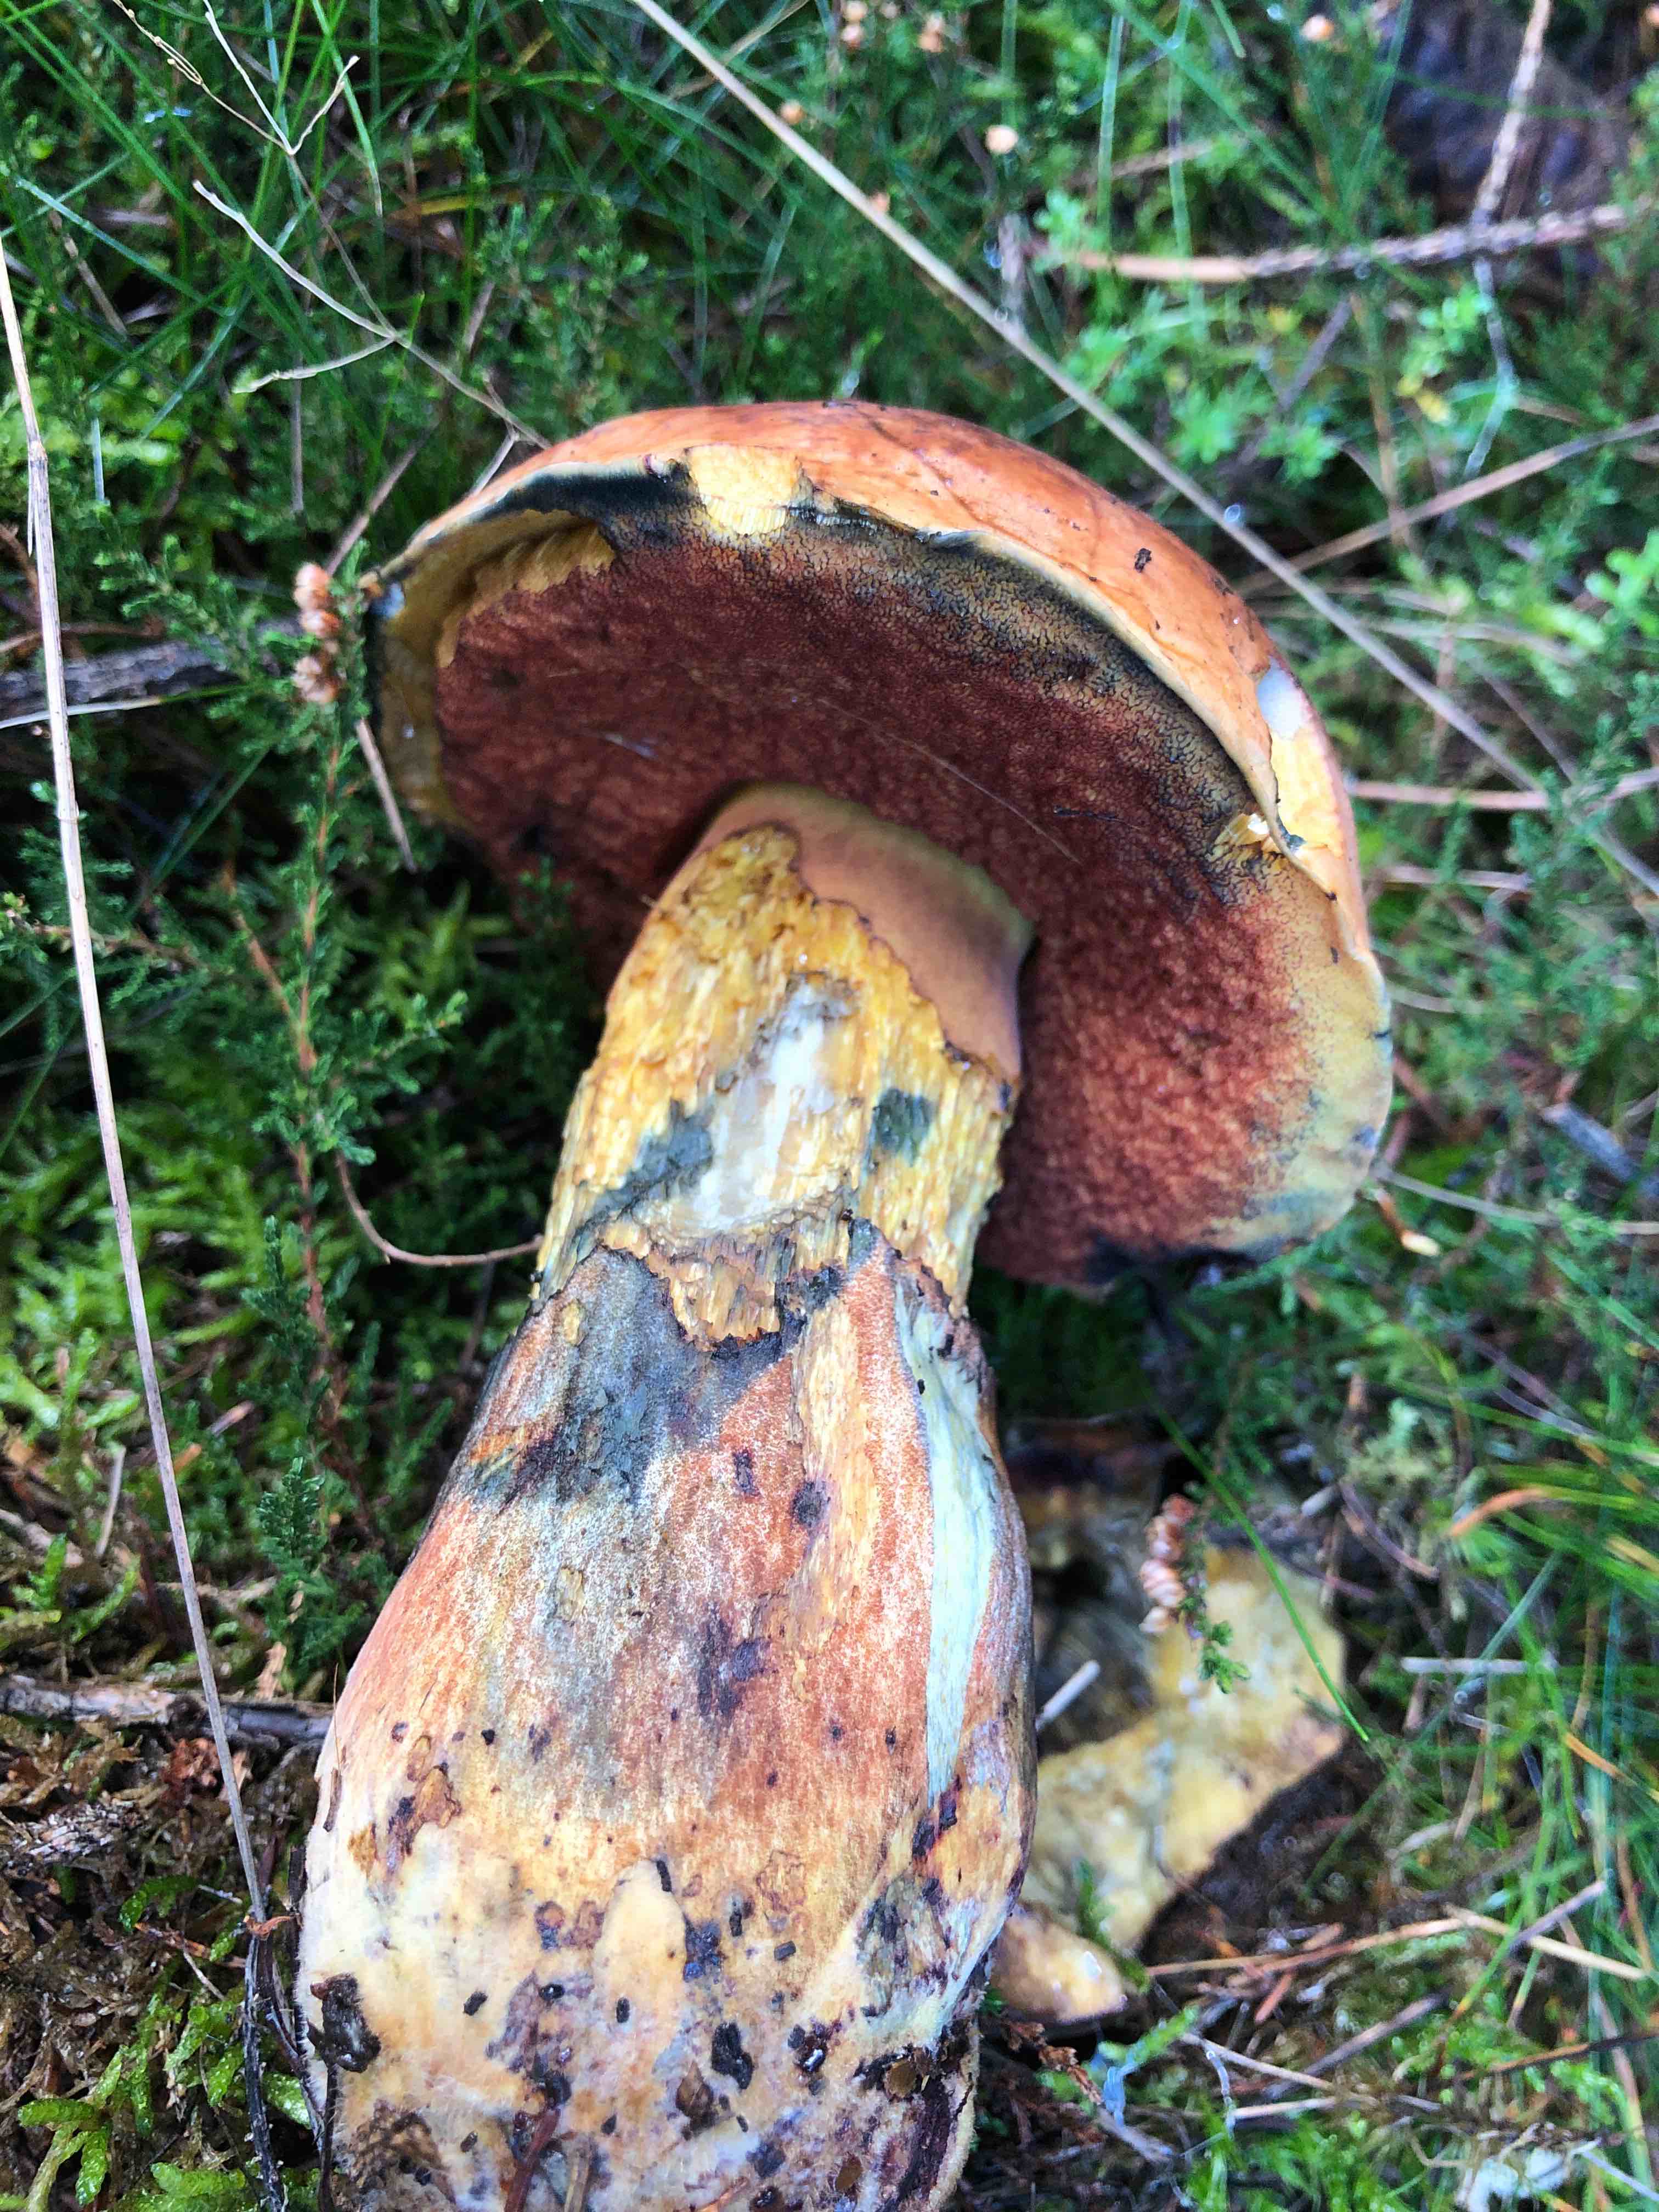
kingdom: Fungi
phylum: Basidiomycota
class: Agaricomycetes
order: Boletales
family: Boletaceae
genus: Neoboletus
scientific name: Neoboletus erythropus
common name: punktstokket indigorørhat
